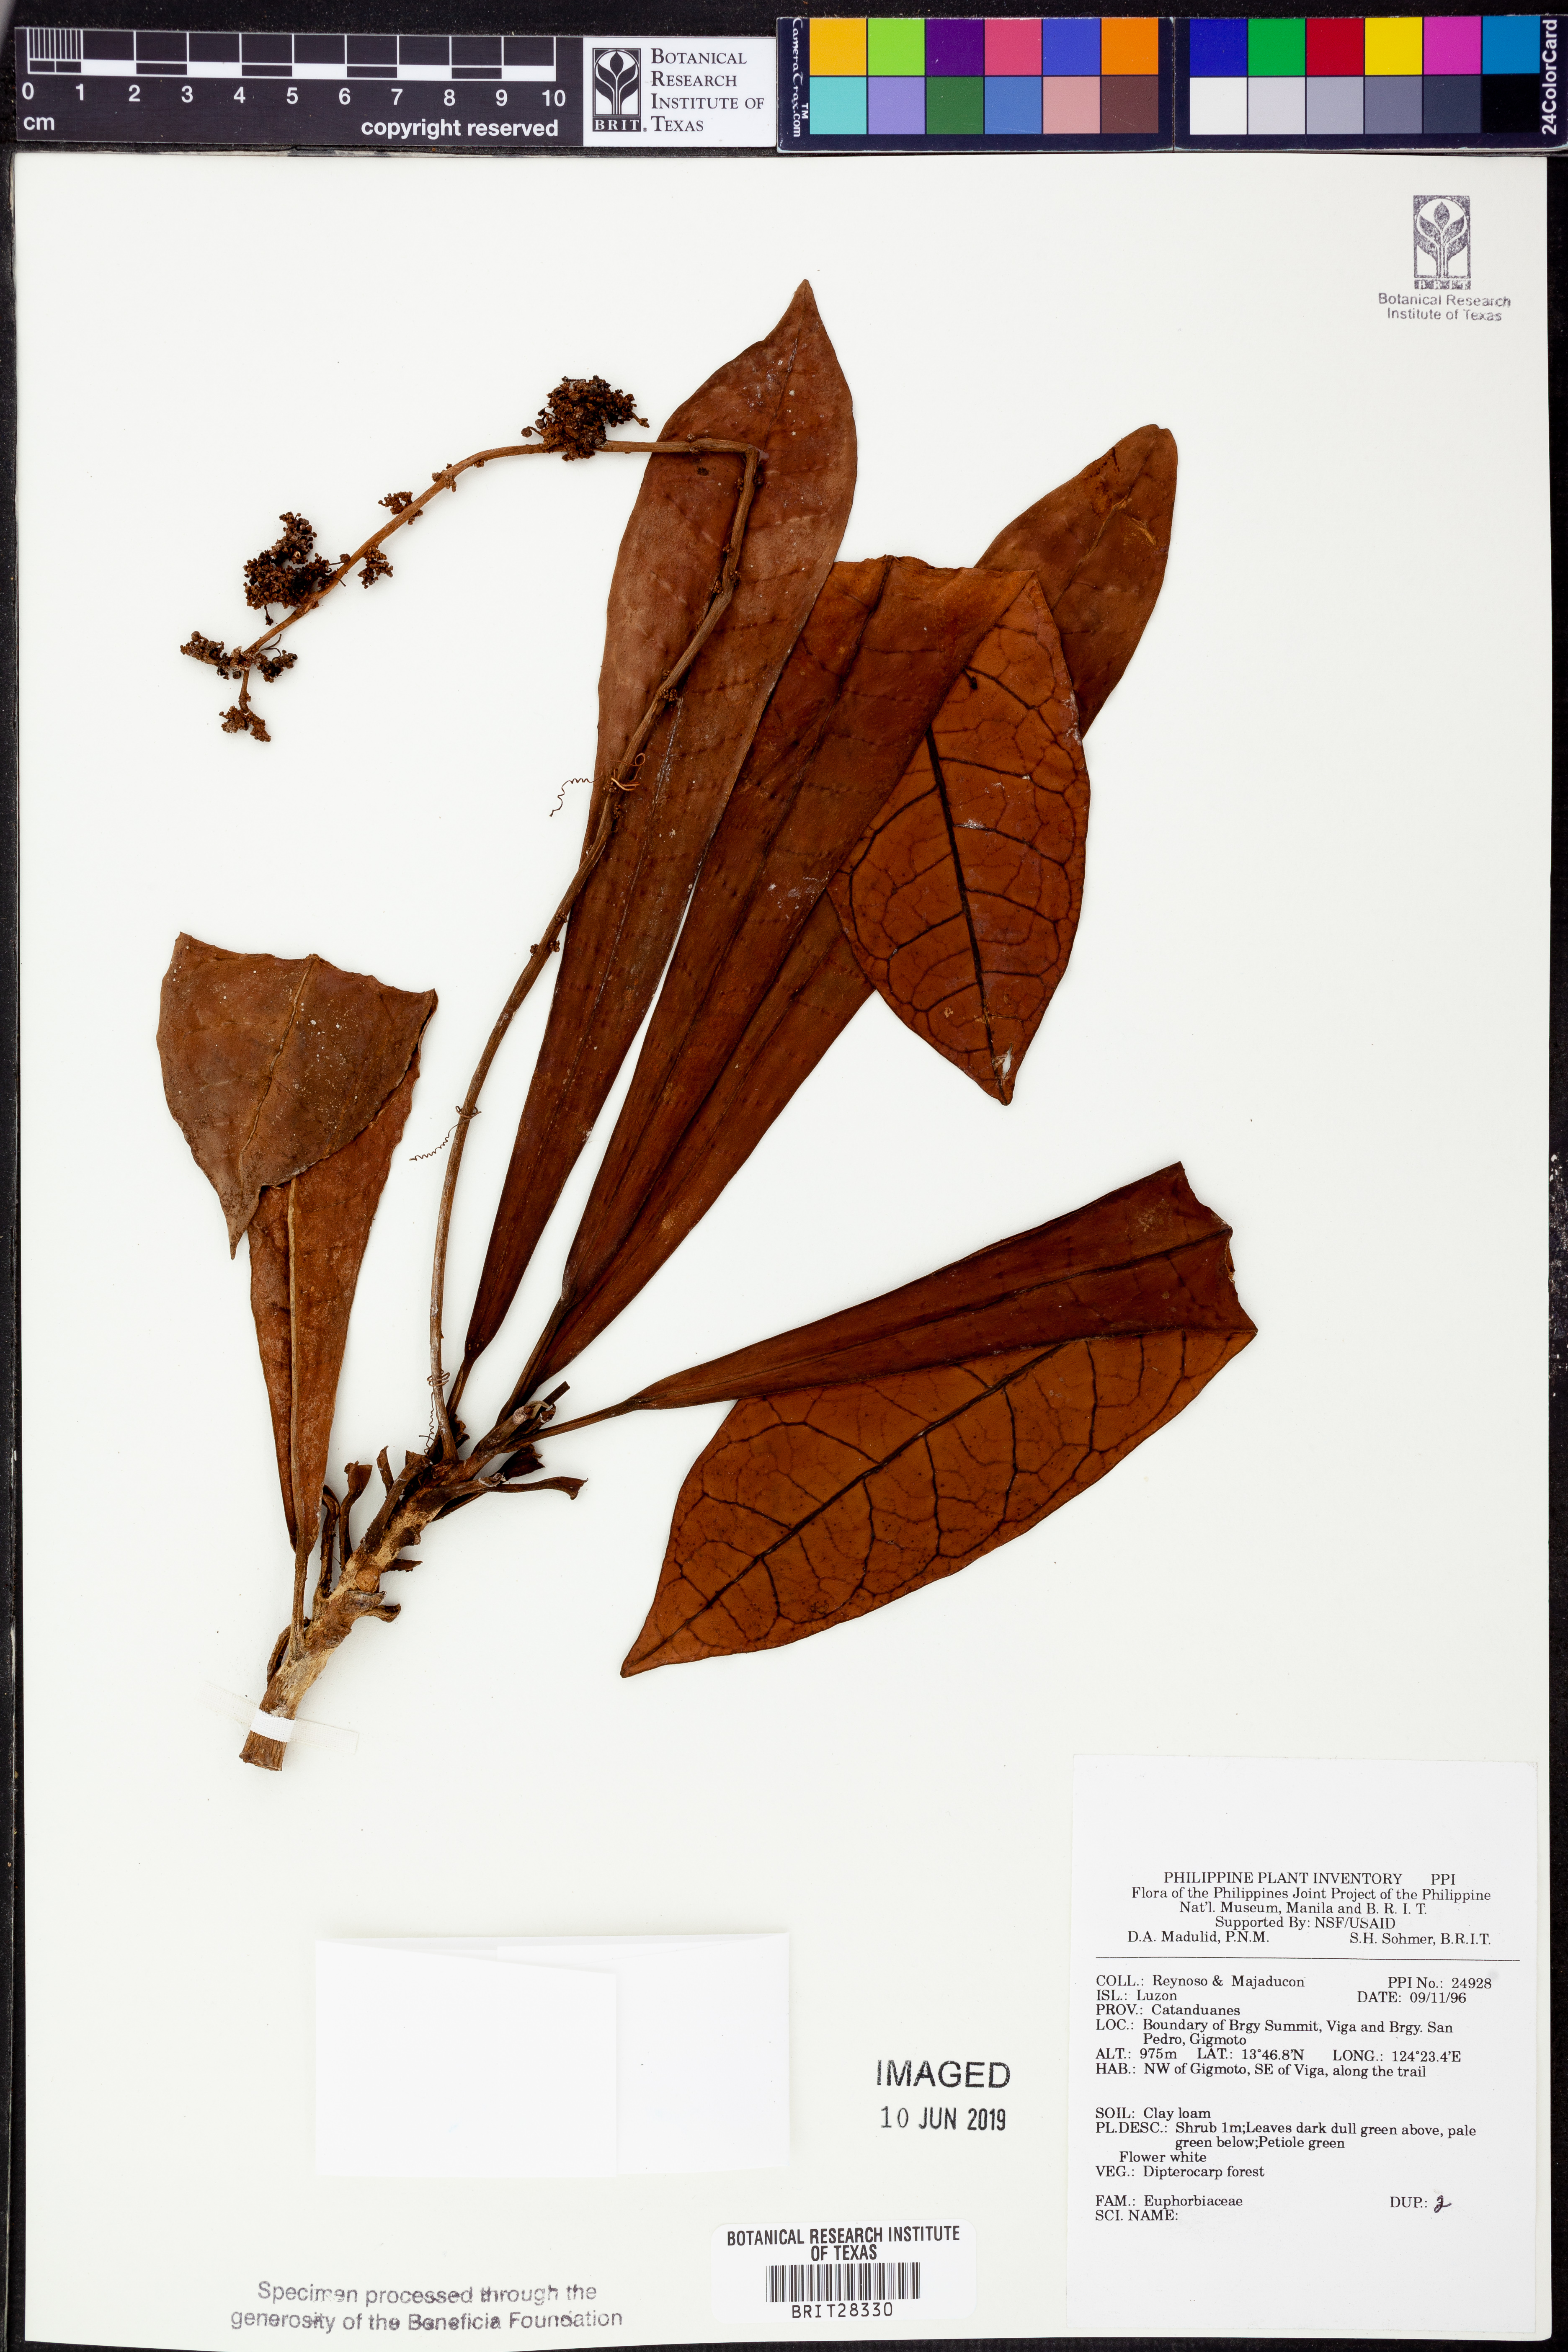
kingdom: Plantae
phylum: Tracheophyta
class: Magnoliopsida
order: Malpighiales
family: Euphorbiaceae
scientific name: Euphorbiaceae
